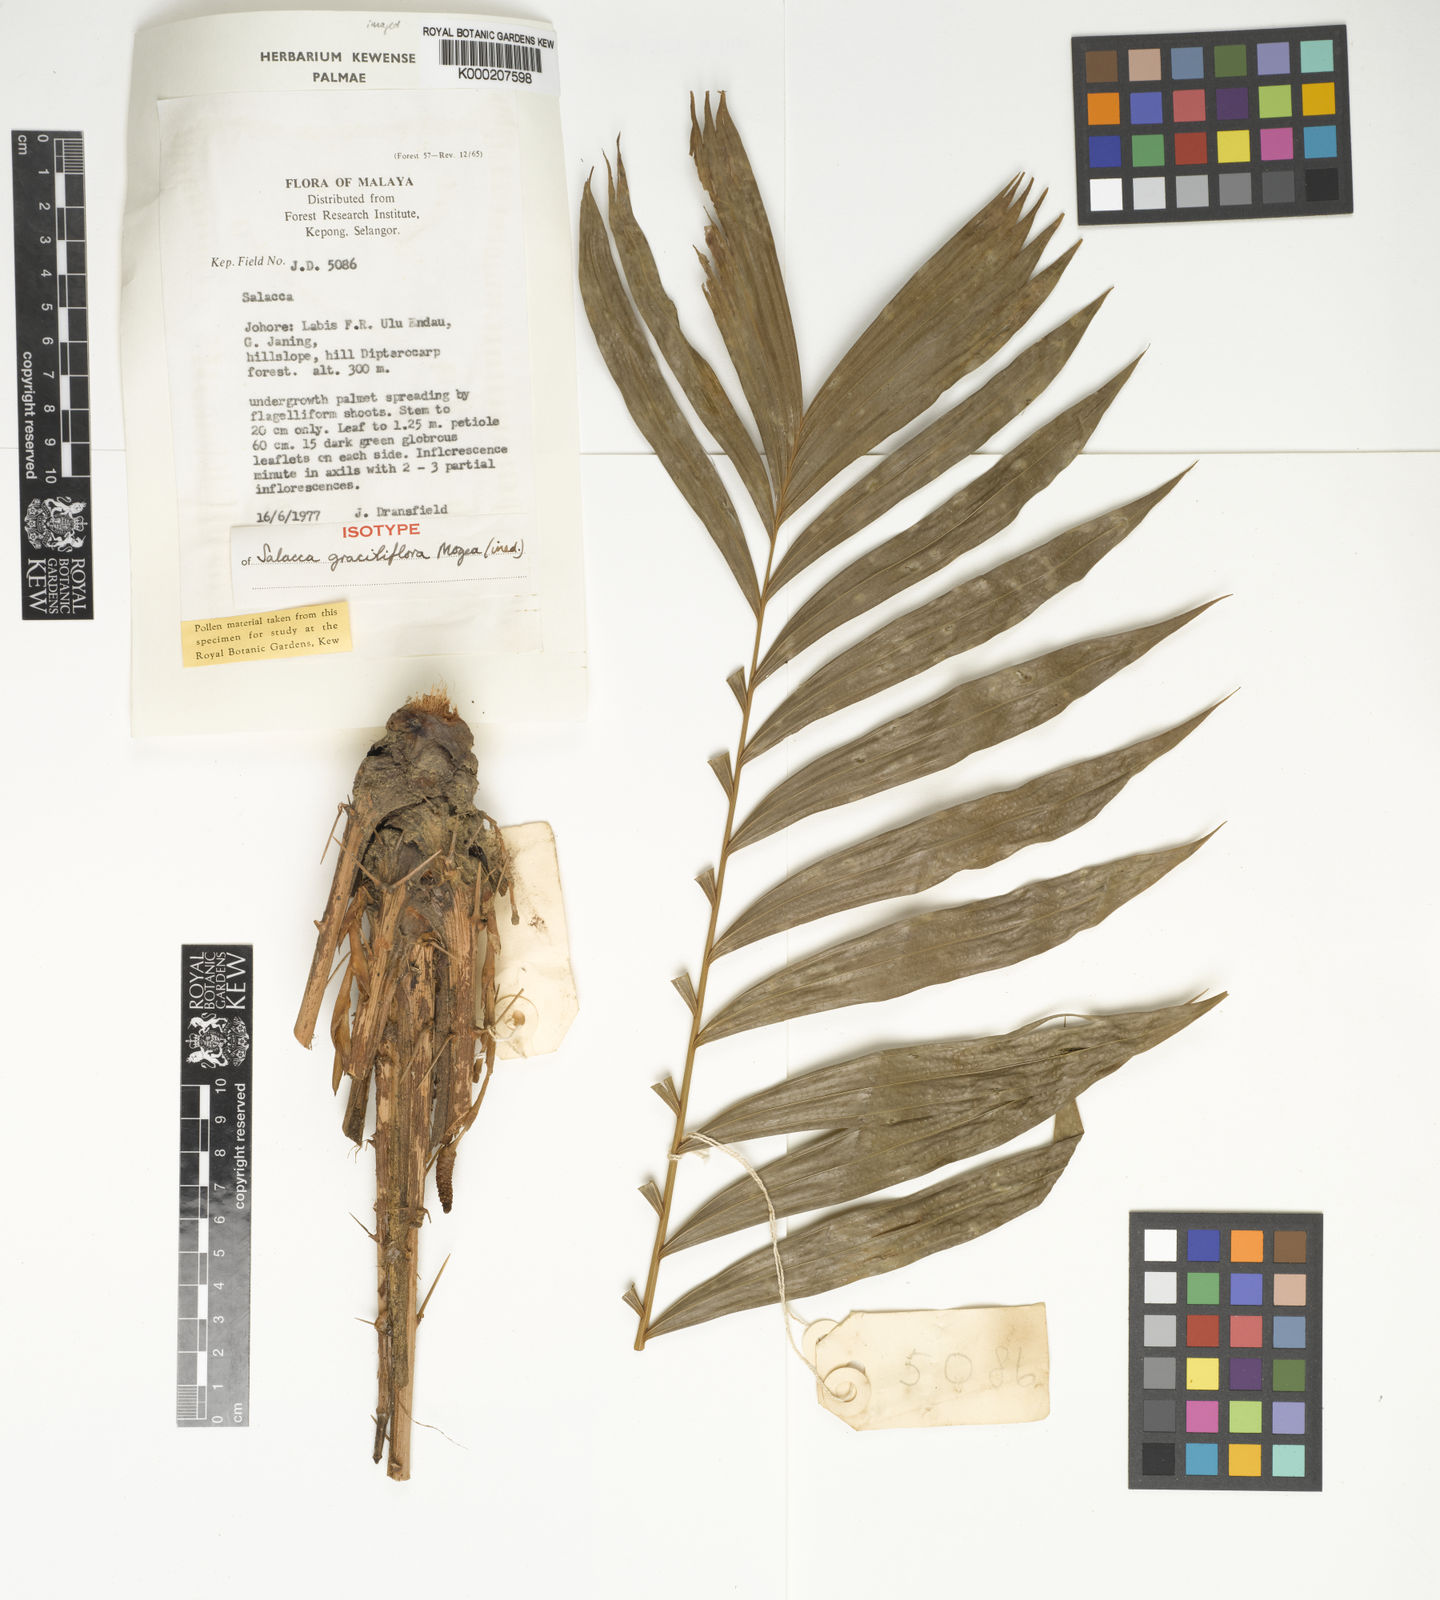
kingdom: Plantae
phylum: Tracheophyta
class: Liliopsida
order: Arecales
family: Arecaceae
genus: Salacca
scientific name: Salacca graciliflora
